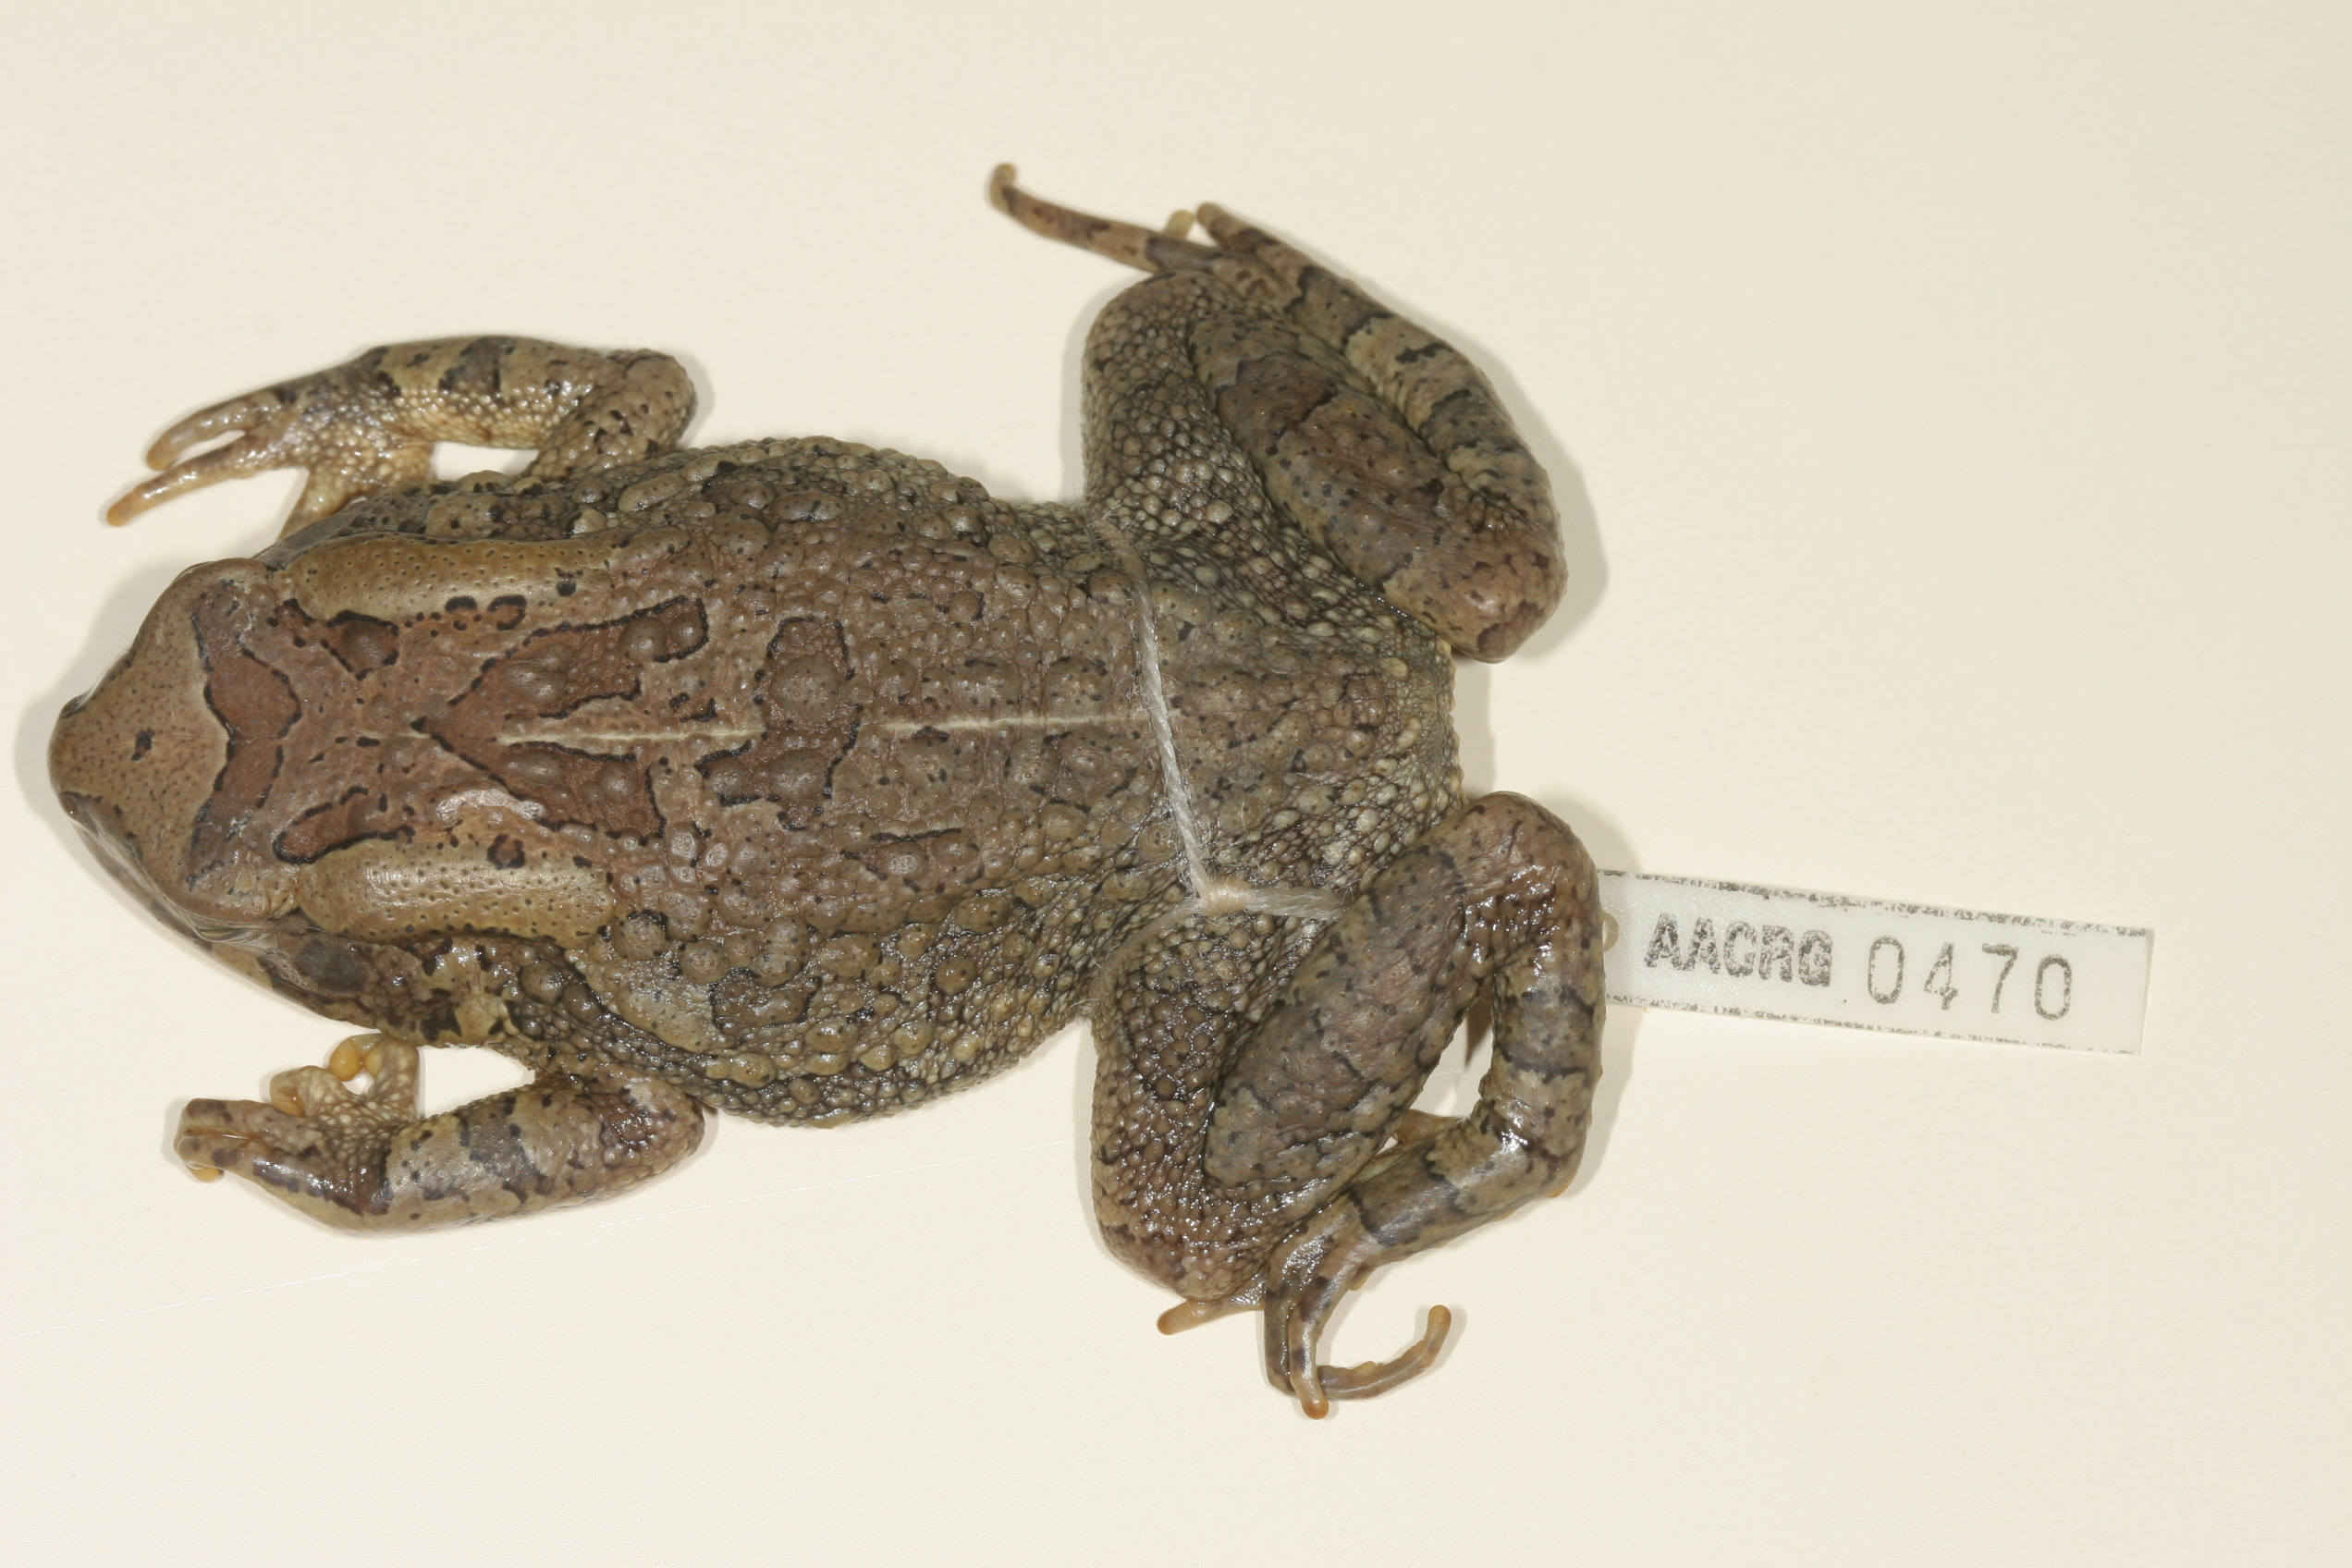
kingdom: Animalia
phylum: Chordata
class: Amphibia
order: Anura
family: Bufonidae
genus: Sclerophrys
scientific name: Sclerophrys capensis
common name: Ranger’s toad
